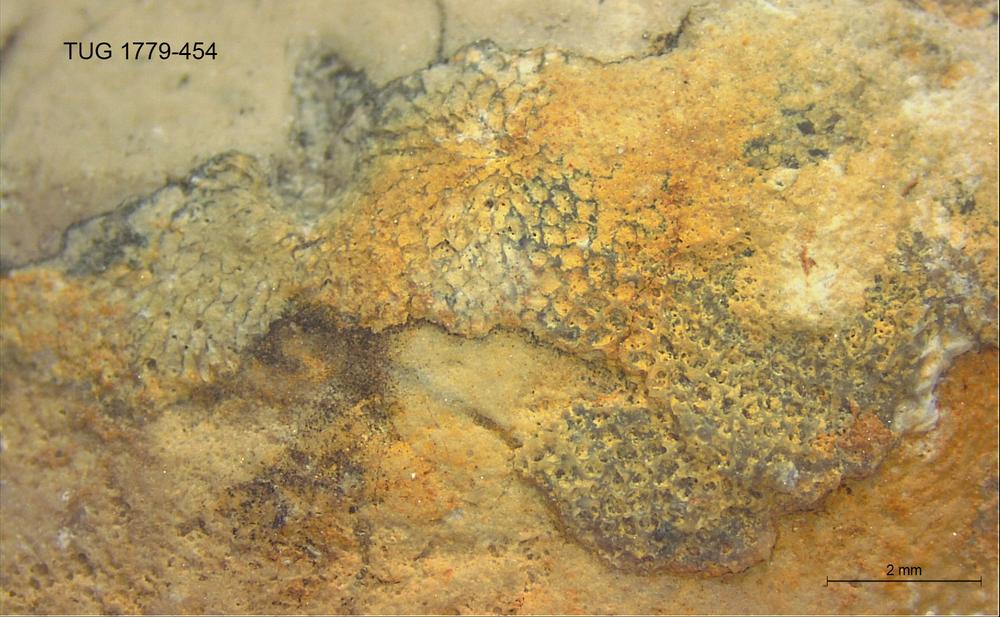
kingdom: Animalia
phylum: Bryozoa
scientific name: Bryozoa
